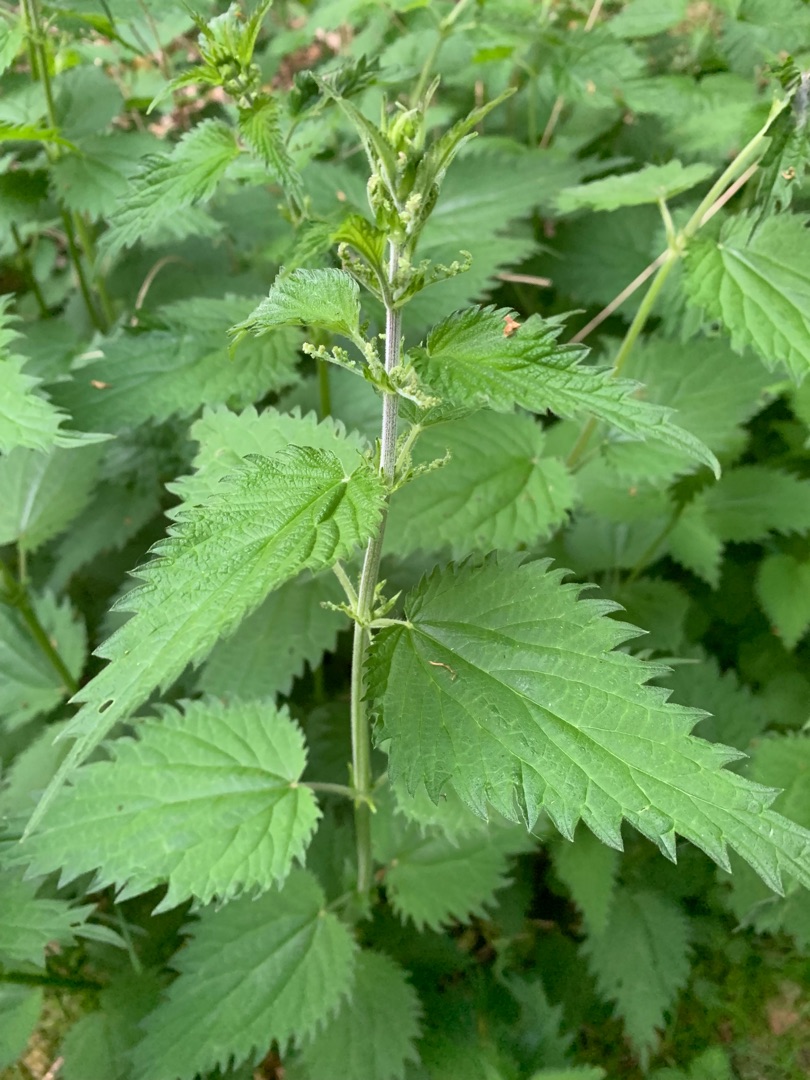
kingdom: Plantae
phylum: Tracheophyta
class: Magnoliopsida
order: Rosales
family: Urticaceae
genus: Urtica
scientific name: Urtica dioica
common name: Stor nælde
